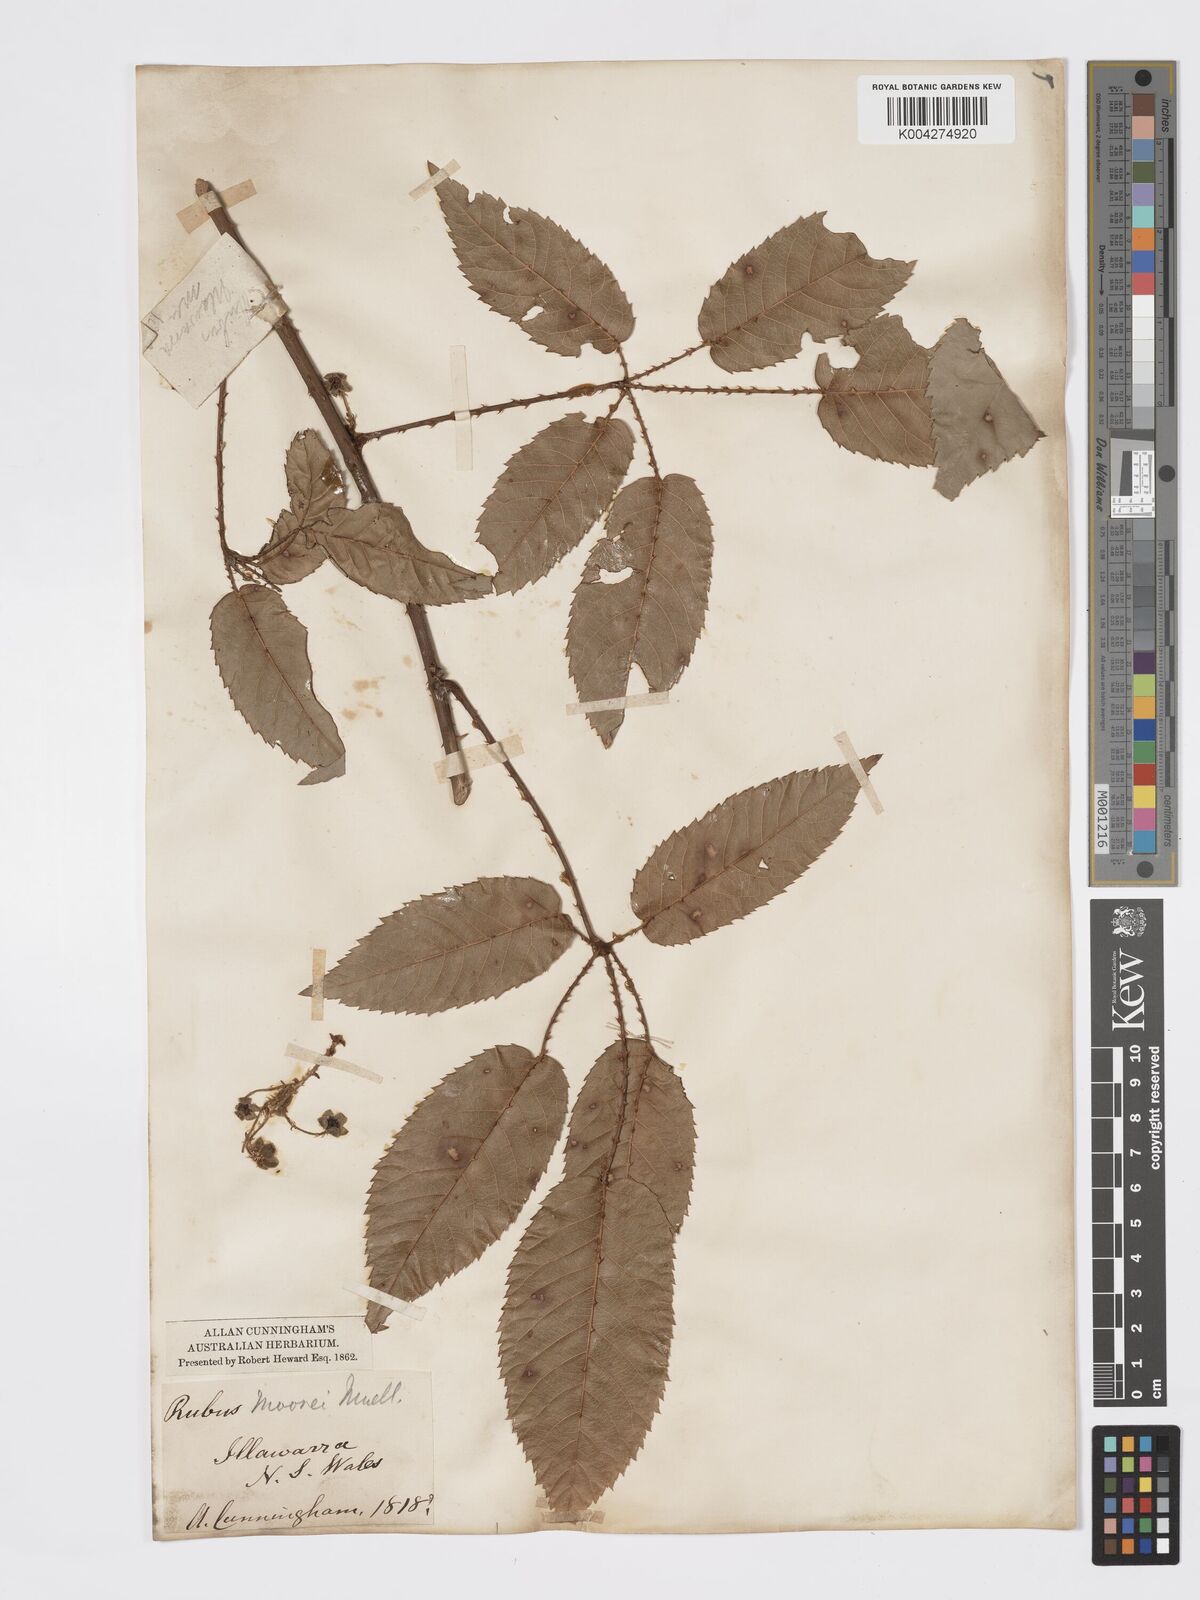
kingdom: Plantae
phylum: Tracheophyta
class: Magnoliopsida
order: Rosales
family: Rosaceae
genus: Rubus
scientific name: Rubus moorei
